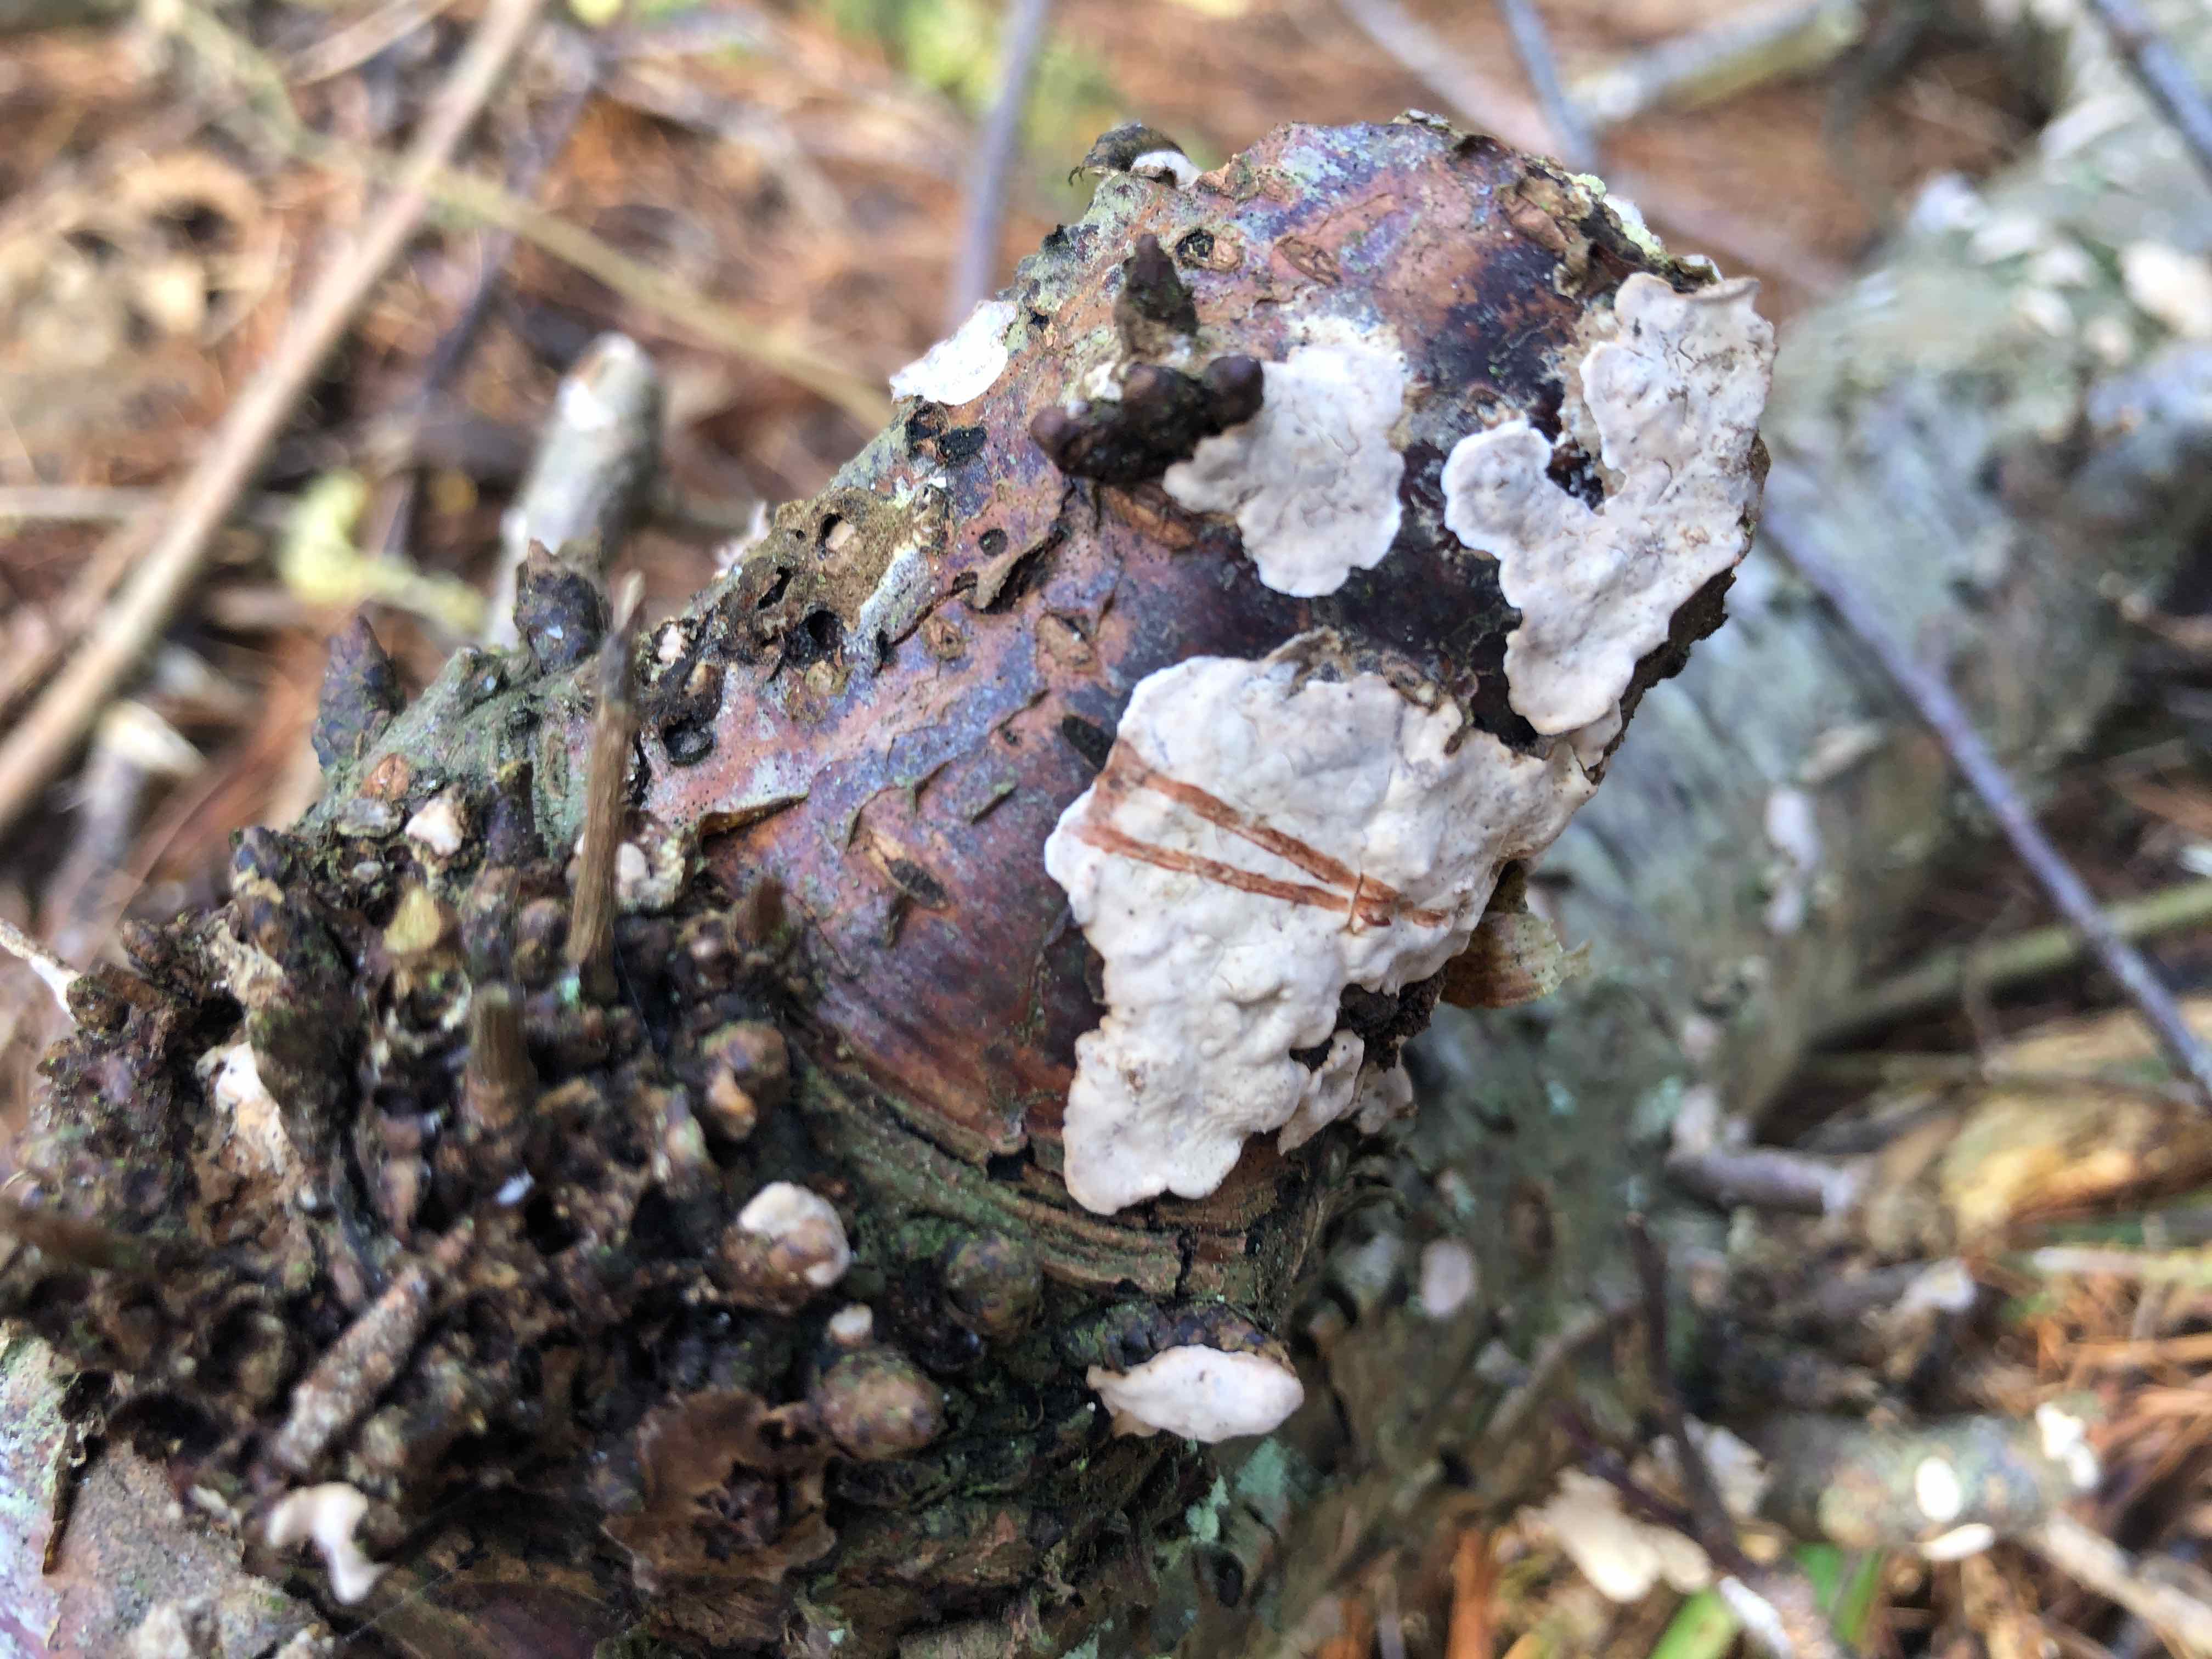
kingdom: Fungi
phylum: Basidiomycota
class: Agaricomycetes
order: Russulales
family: Stereaceae
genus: Stereum
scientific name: Stereum rugosum
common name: rynket lædersvamp
